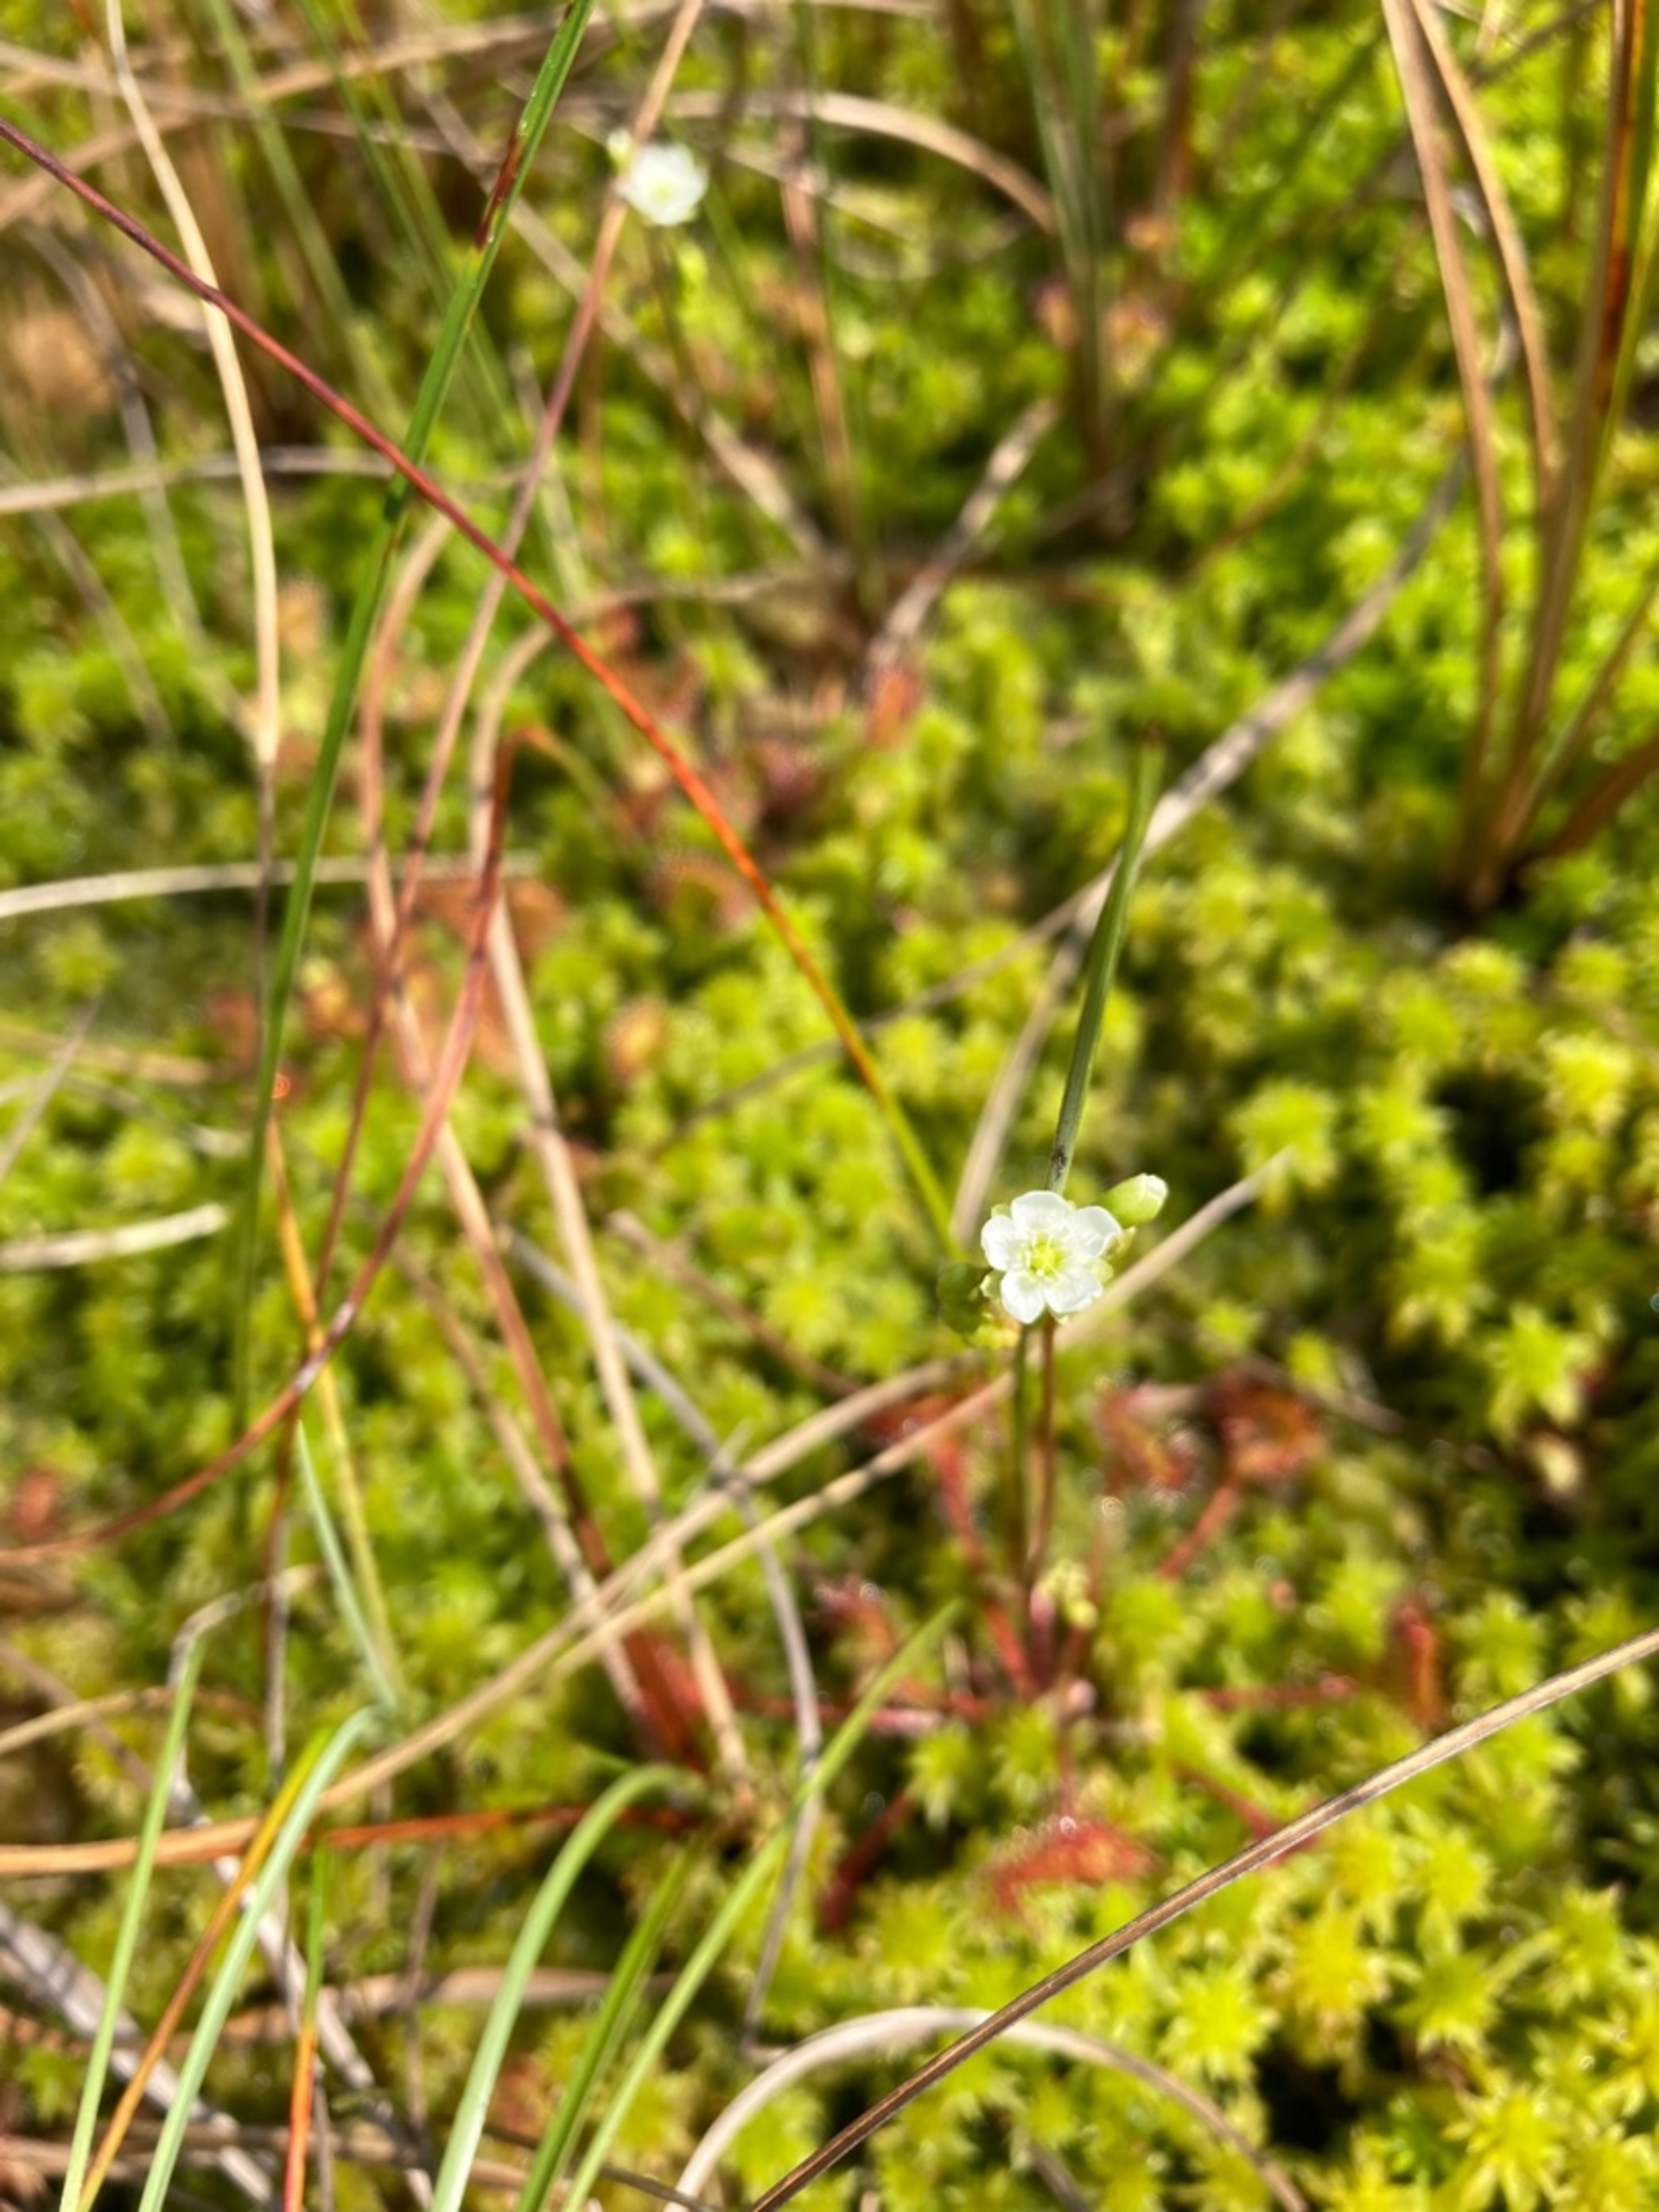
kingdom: Plantae
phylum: Tracheophyta
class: Magnoliopsida
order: Caryophyllales
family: Droseraceae
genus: Drosera
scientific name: Drosera rotundifolia
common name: Rundbladet soldug
